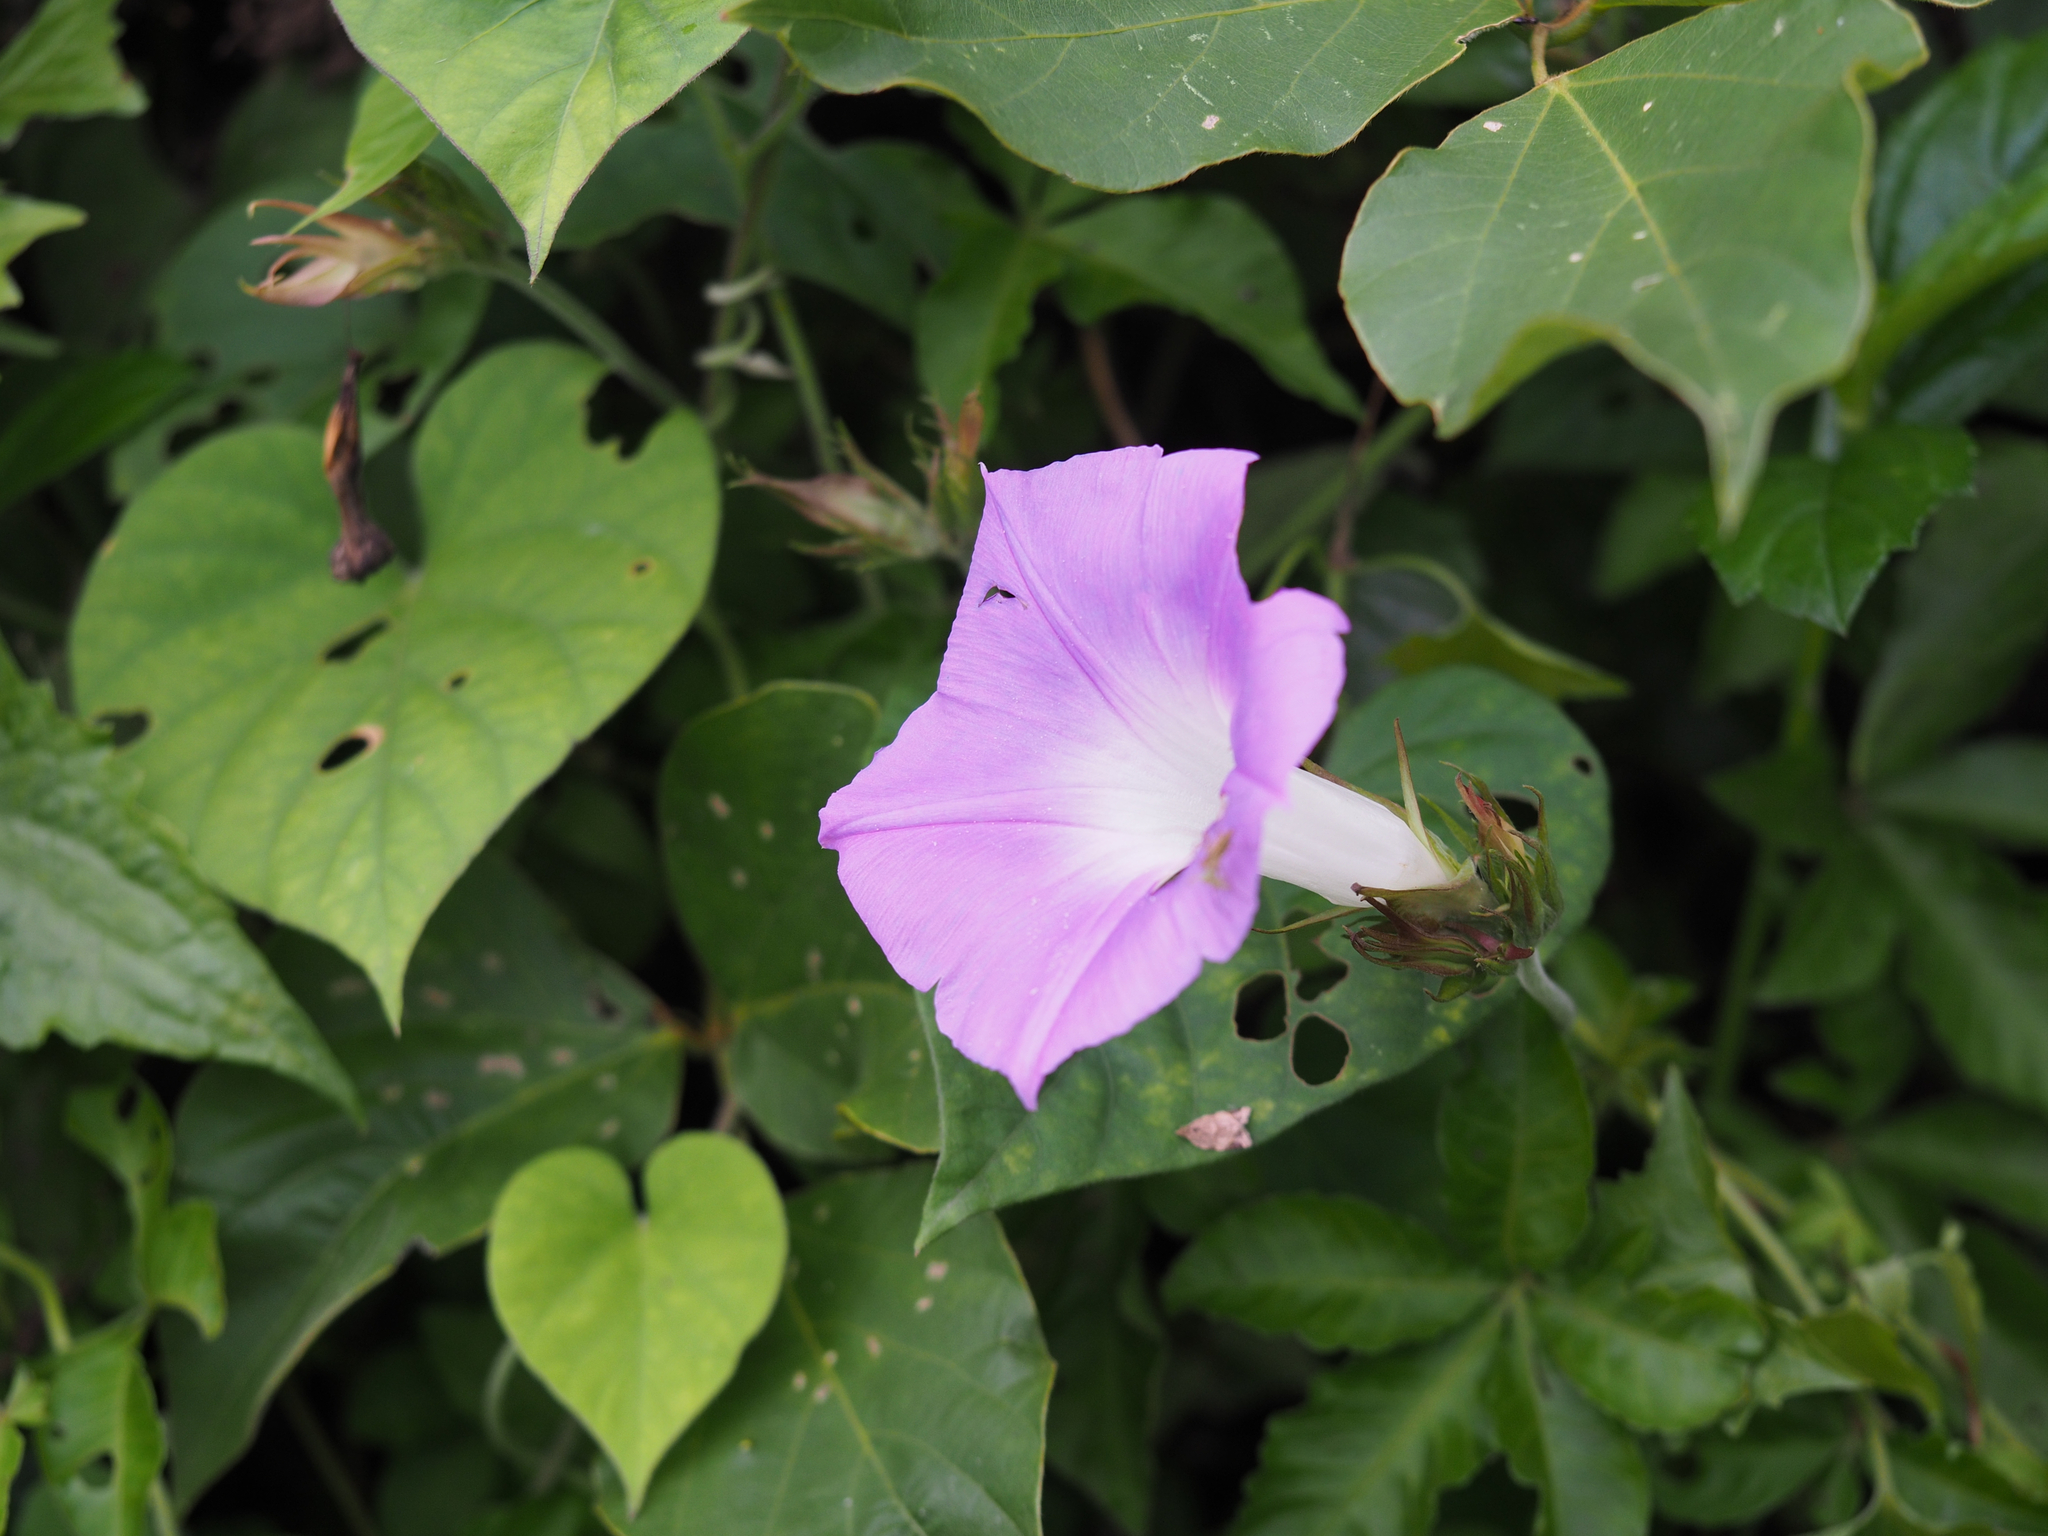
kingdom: Plantae
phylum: Tracheophyta
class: Magnoliopsida
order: Solanales
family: Convolvulaceae
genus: Ipomoea
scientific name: Ipomoea indica
